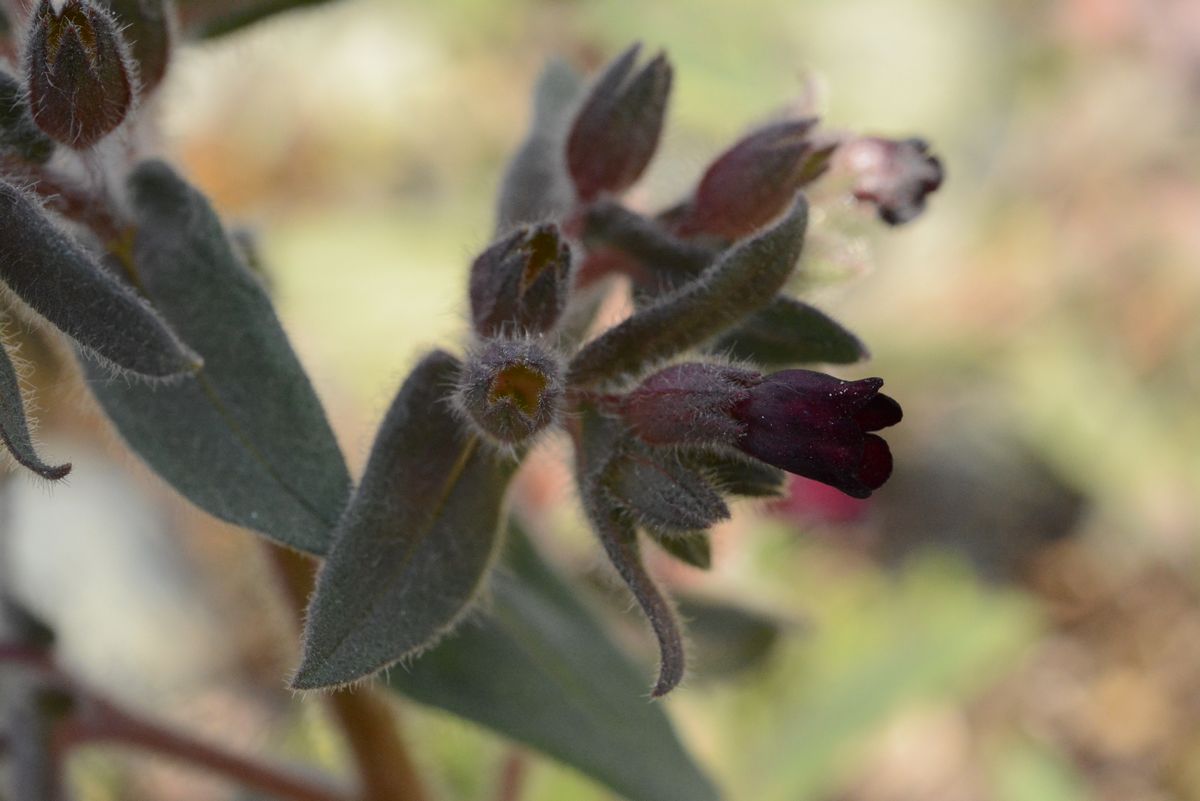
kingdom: Plantae
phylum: Tracheophyta
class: Magnoliopsida
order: Boraginales
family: Boraginaceae
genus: Nonea
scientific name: Nonea pulla
